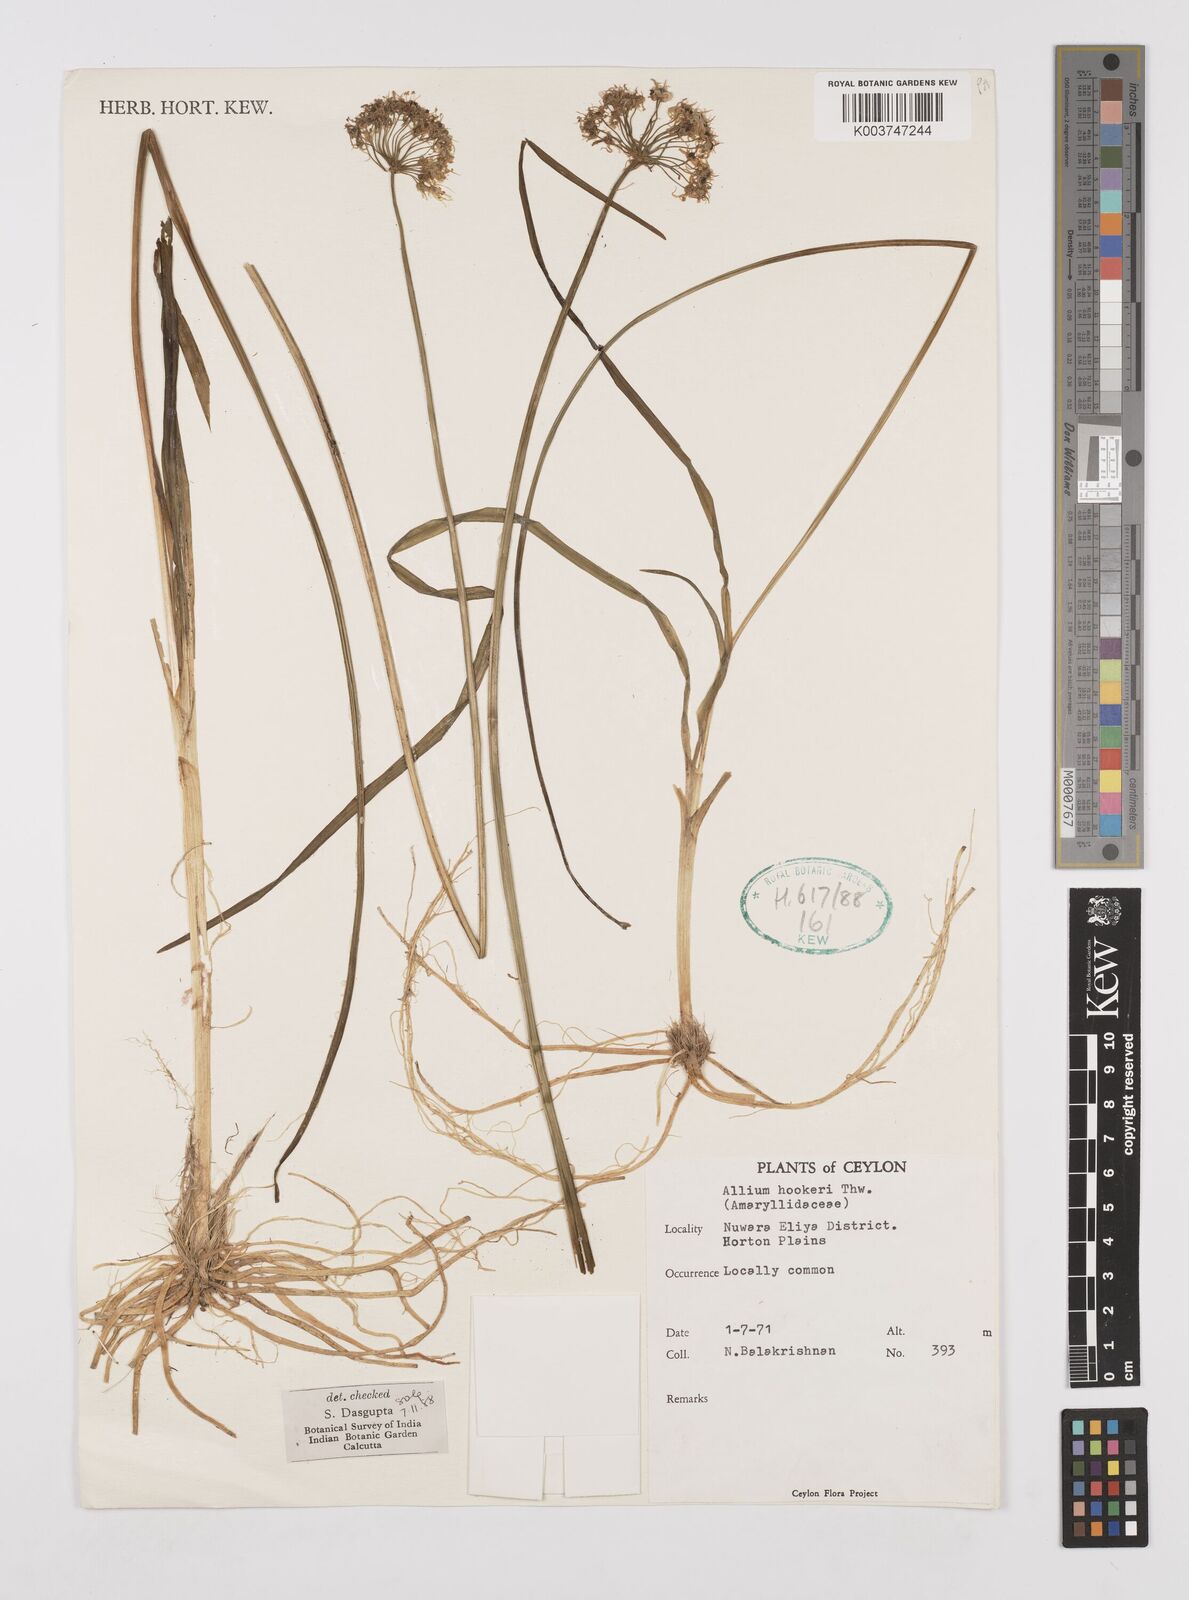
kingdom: Plantae
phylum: Tracheophyta
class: Liliopsida
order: Asparagales
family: Amaryllidaceae
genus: Allium
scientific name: Allium hookeri
